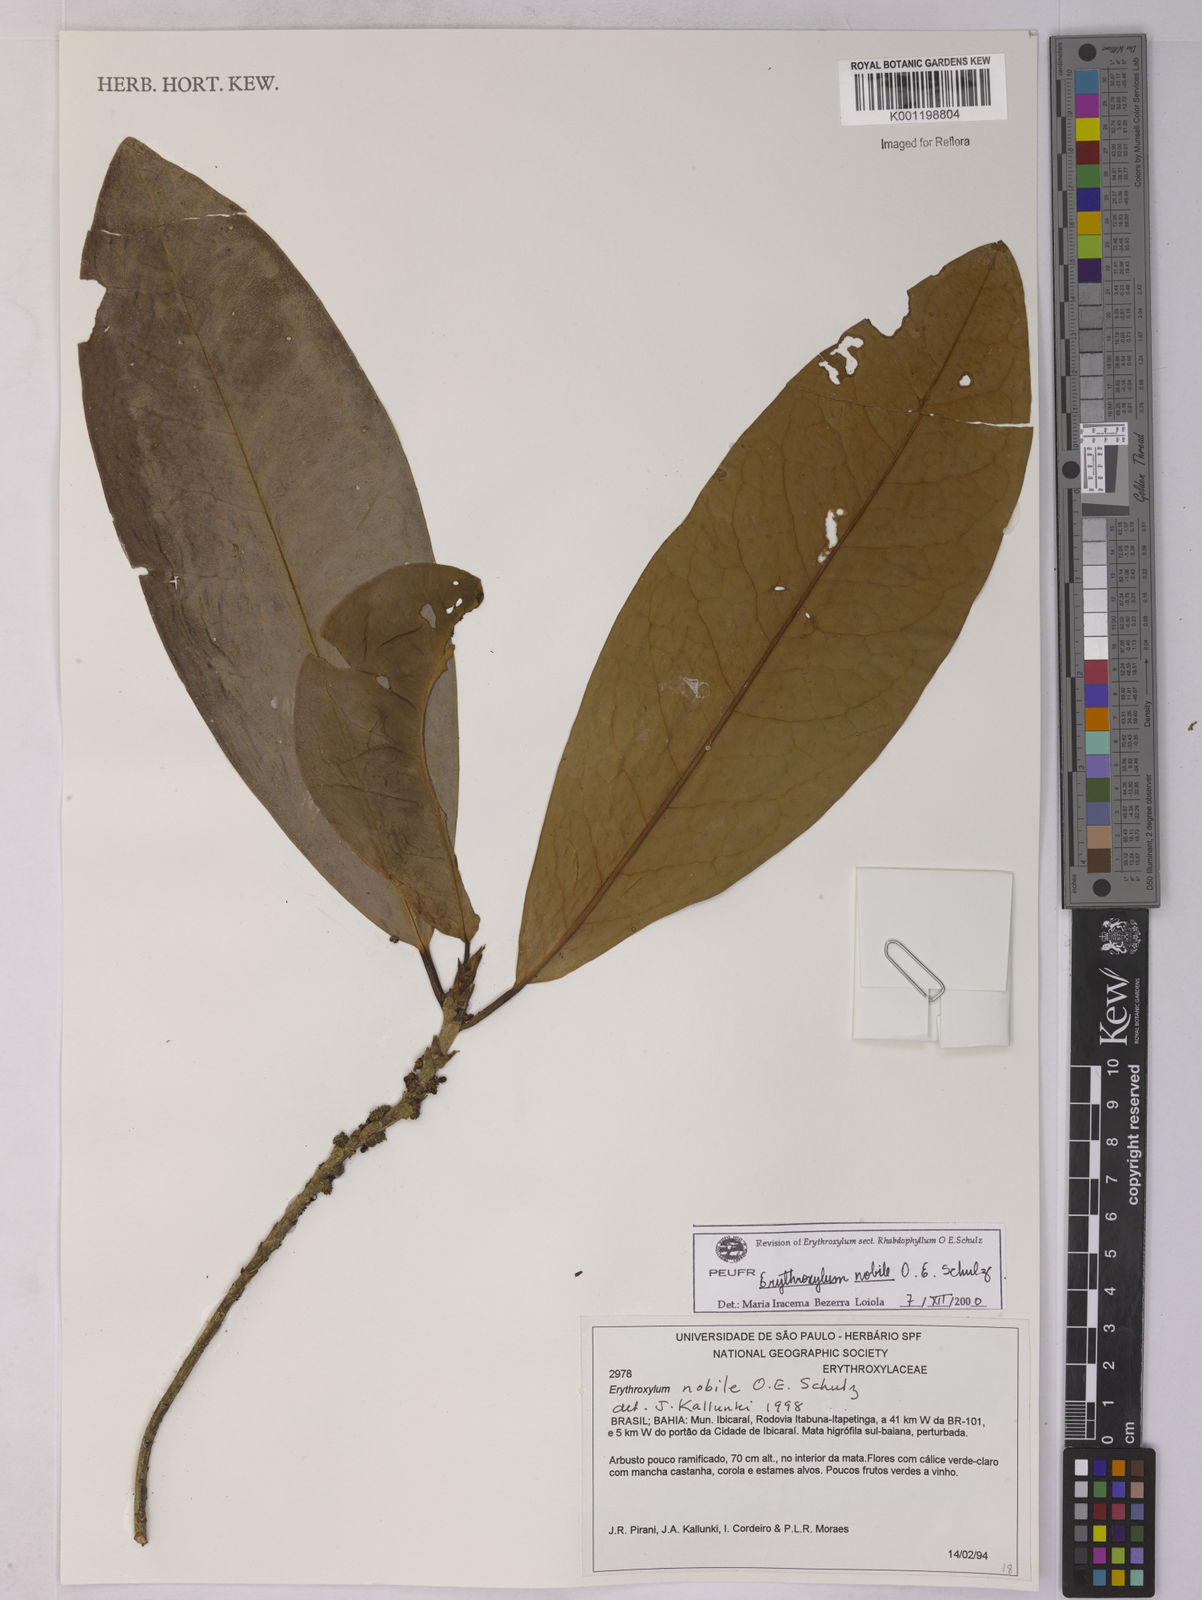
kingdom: Plantae
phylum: Tracheophyta
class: Magnoliopsida
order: Malpighiales
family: Erythroxylaceae
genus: Erythroxylum
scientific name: Erythroxylum nobile
